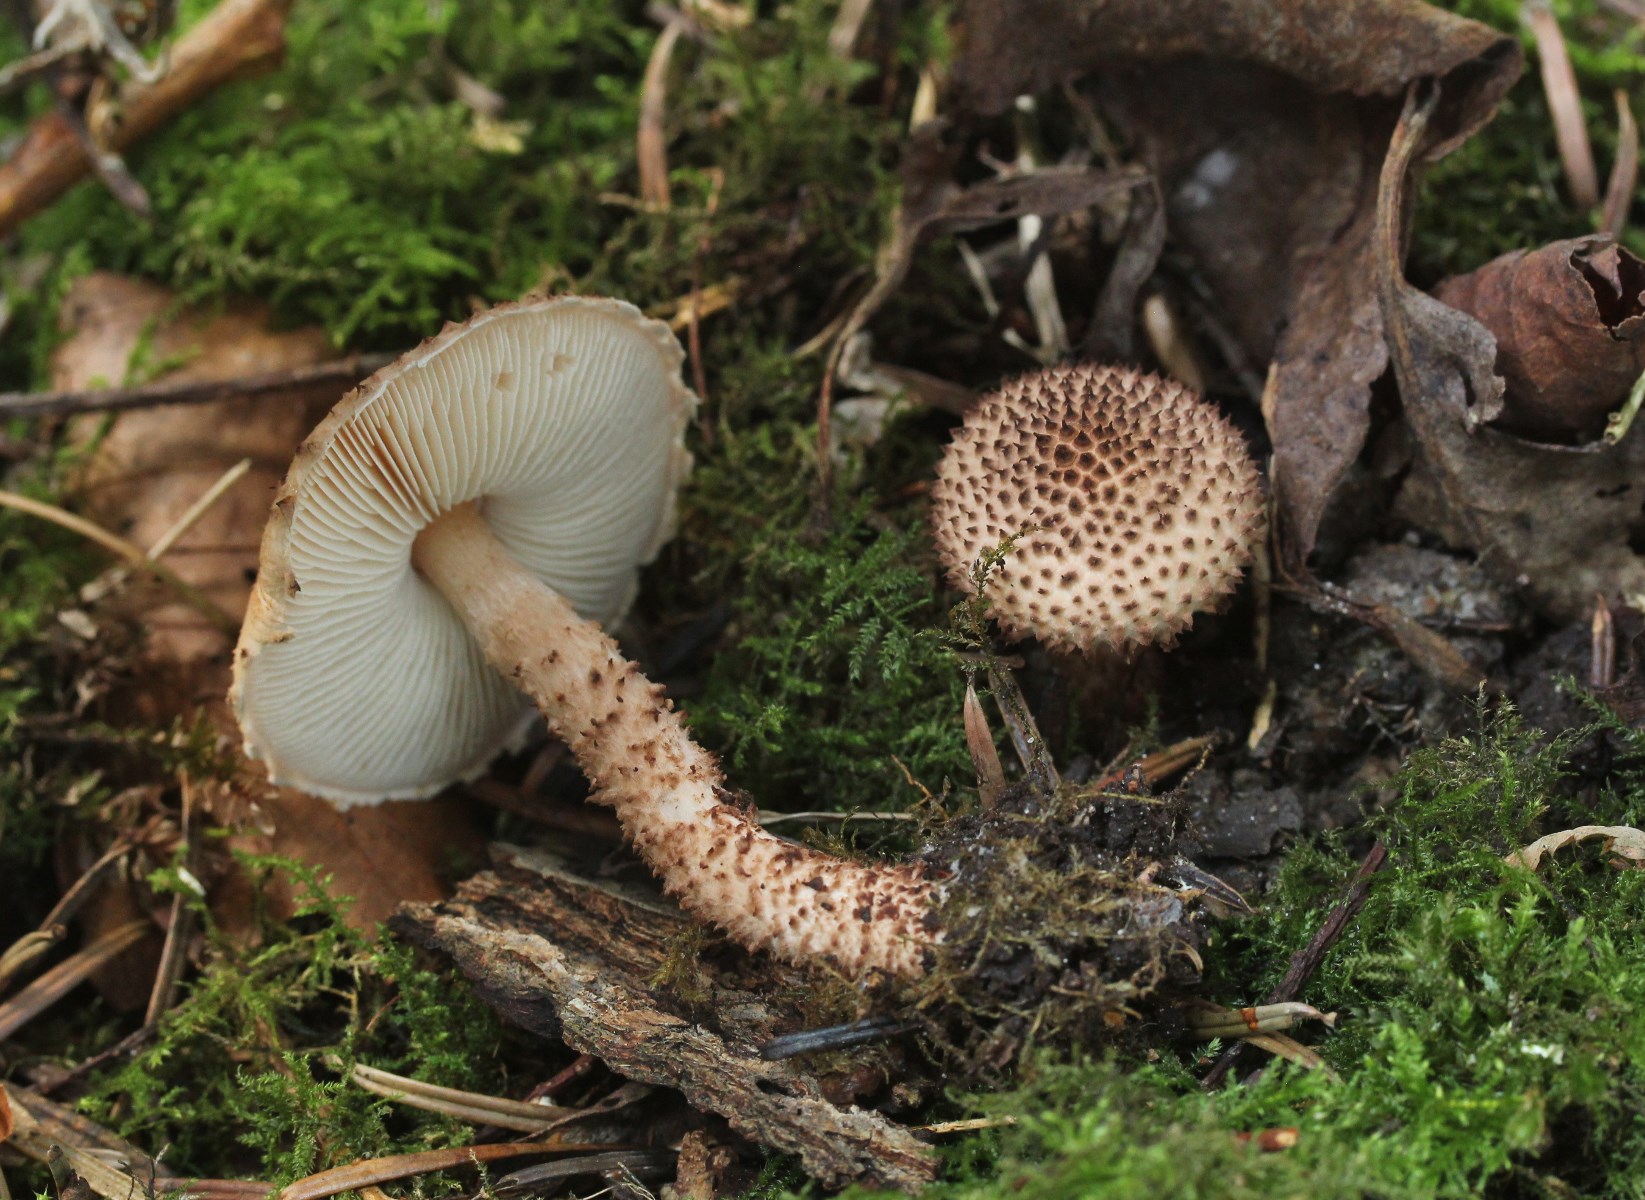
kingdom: Fungi
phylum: Basidiomycota
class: Agaricomycetes
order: Agaricales
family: Agaricaceae
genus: Echinoderma
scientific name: Echinoderma asperum
